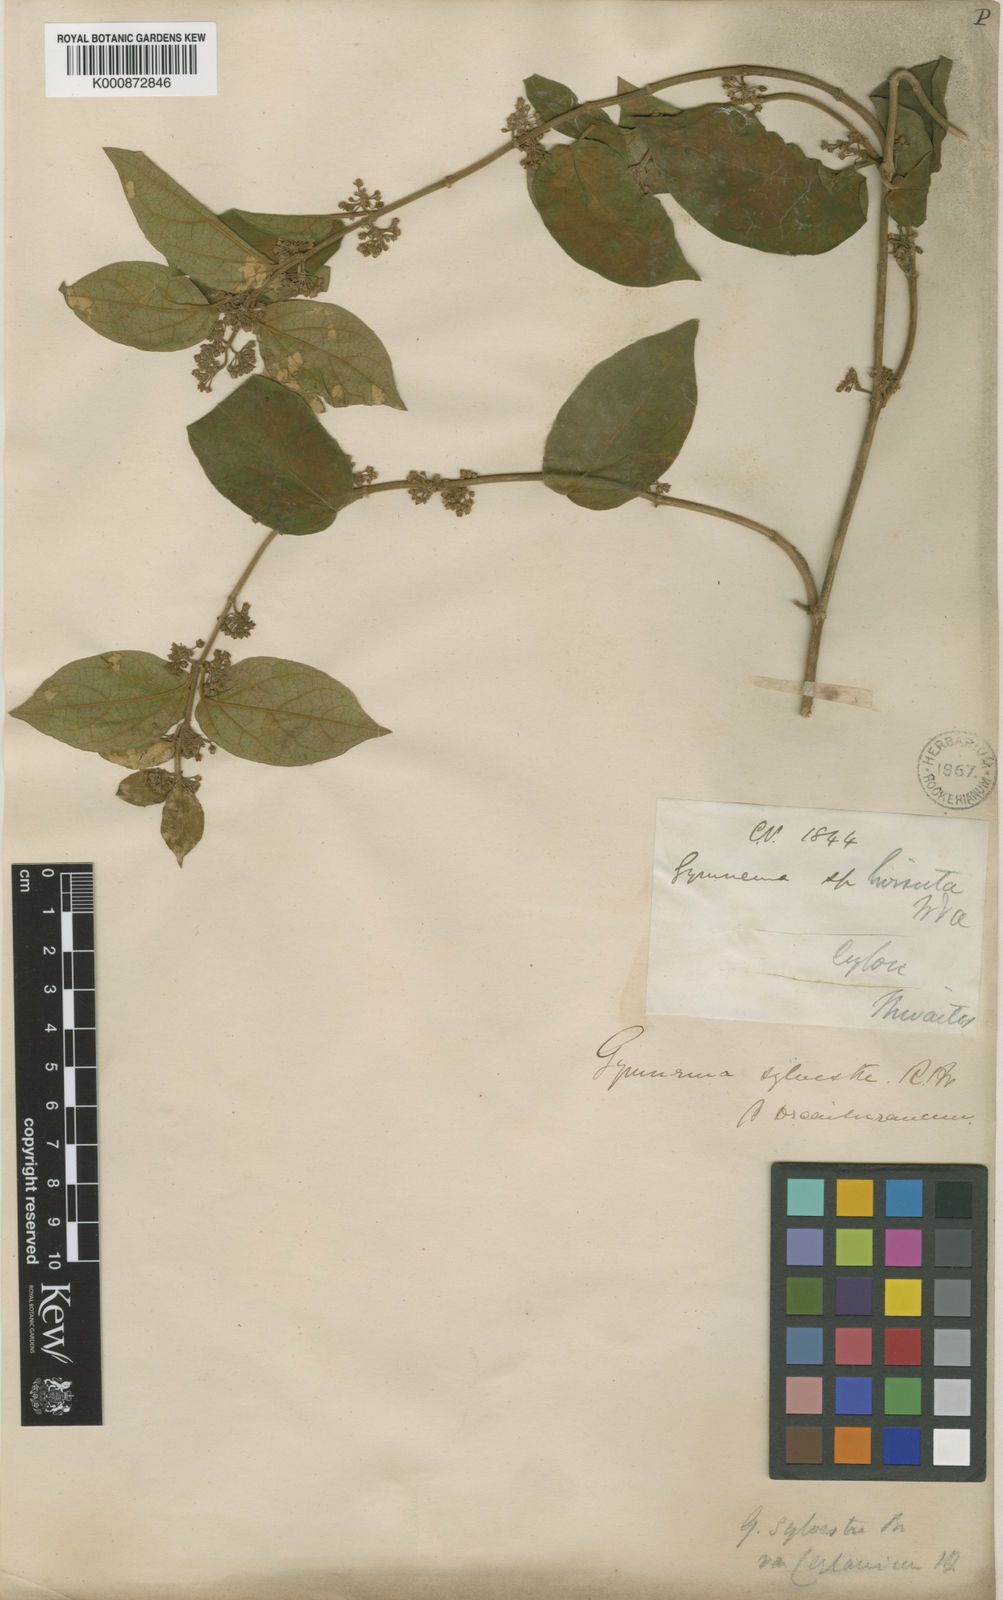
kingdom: Plantae
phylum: Tracheophyta
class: Magnoliopsida
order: Gentianales
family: Apocynaceae
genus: Gymnema
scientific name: Gymnema sylvestre
